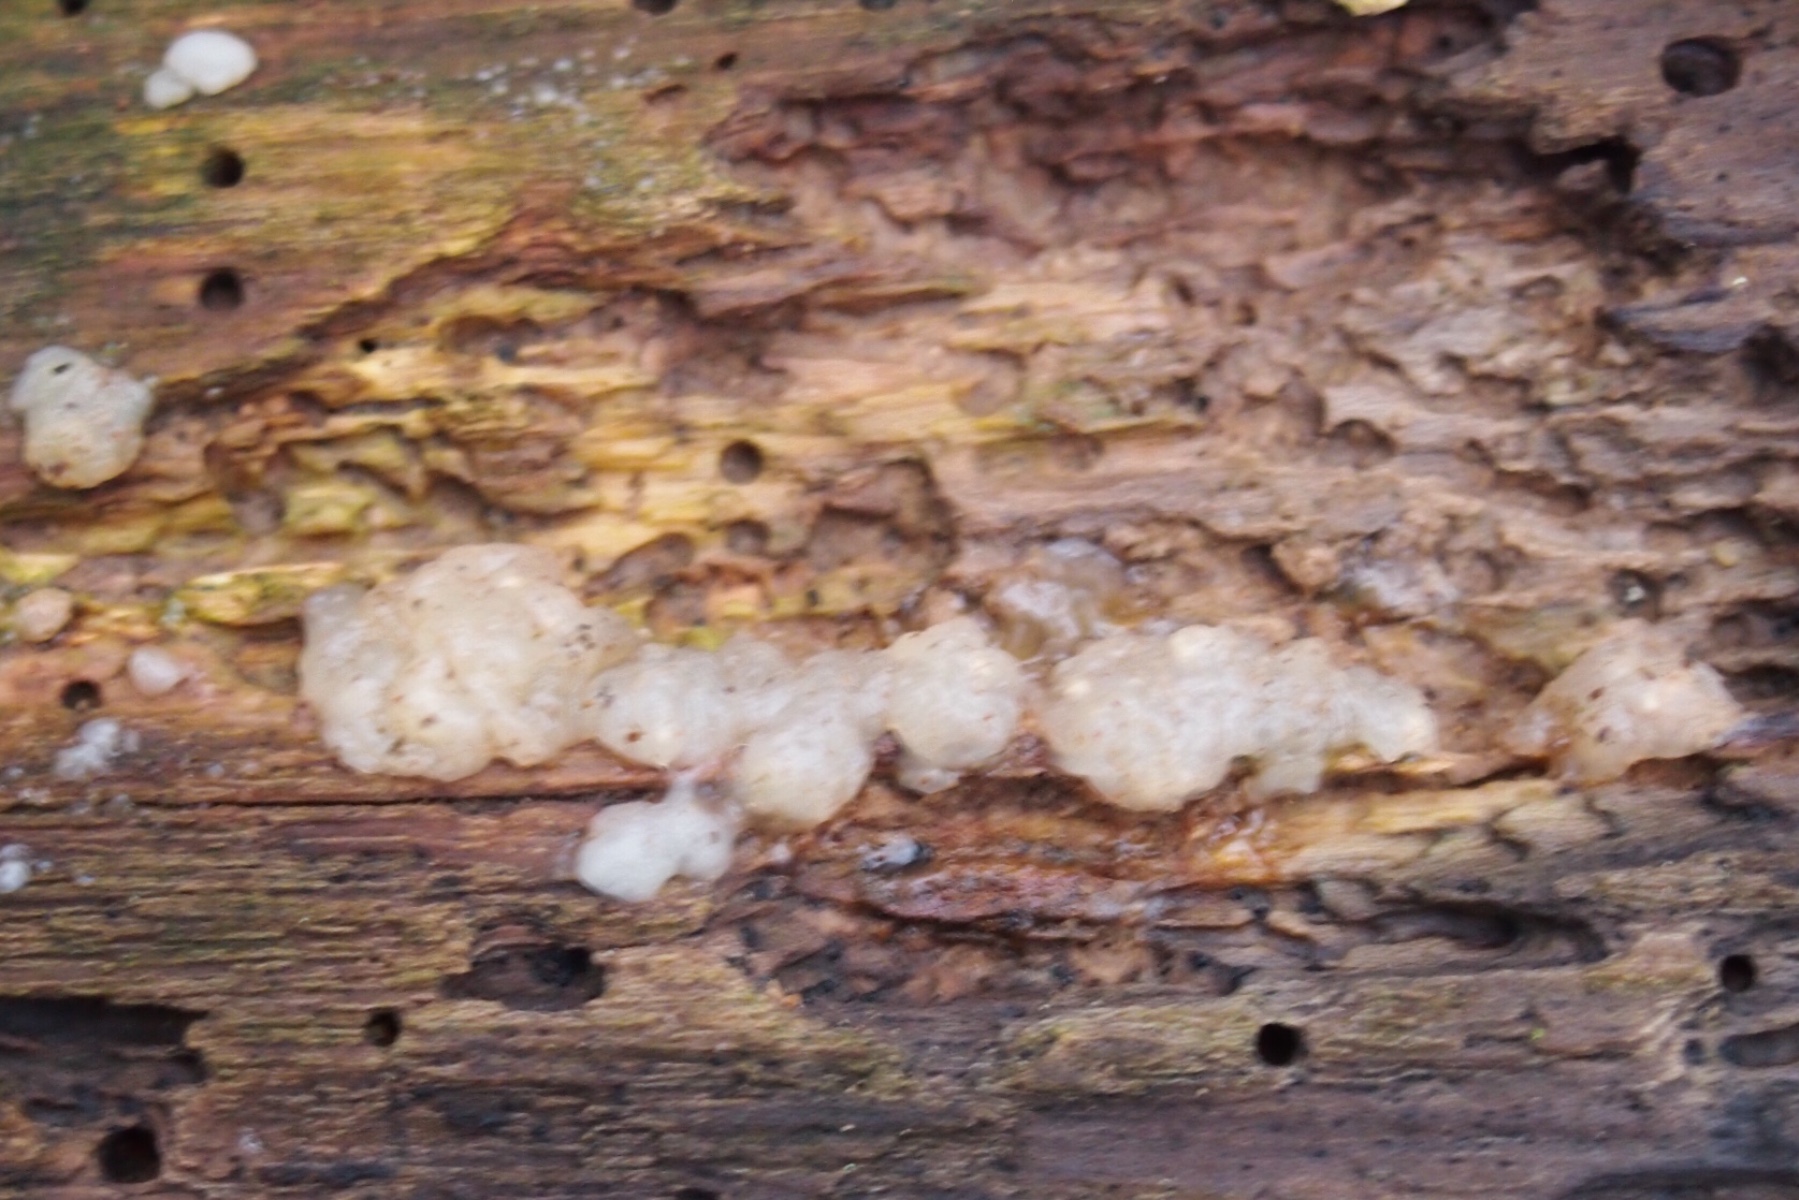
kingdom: Fungi
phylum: Basidiomycota
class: Agaricomycetes
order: Auriculariales
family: Hyaloriaceae
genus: Myxarium
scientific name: Myxarium nucleatum
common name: klar bævretop
